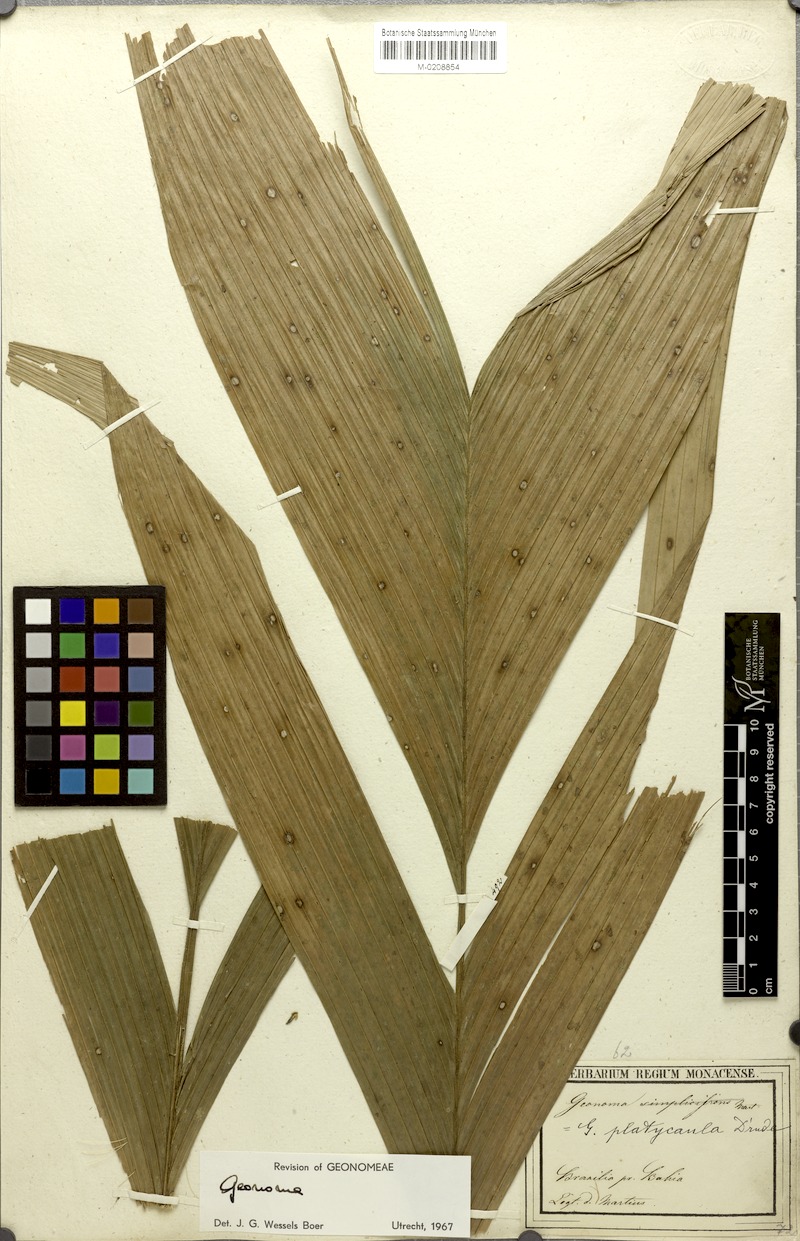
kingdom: Plantae
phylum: Tracheophyta
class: Liliopsida
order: Arecales
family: Arecaceae
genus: Geonoma
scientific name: Geonoma pohliana
